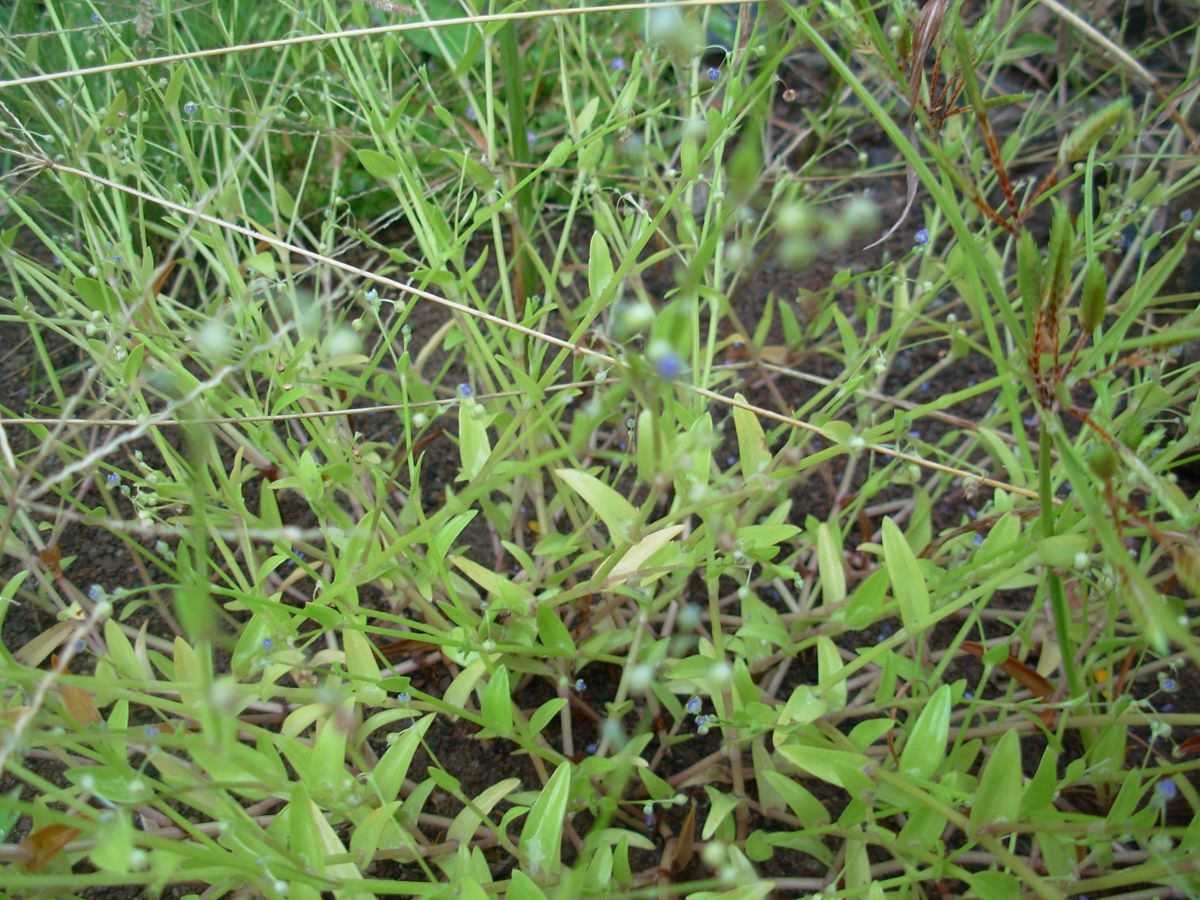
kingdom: Plantae
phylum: Tracheophyta
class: Liliopsida
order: Commelinales
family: Commelinaceae
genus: Callisia
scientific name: Callisia filiformis
